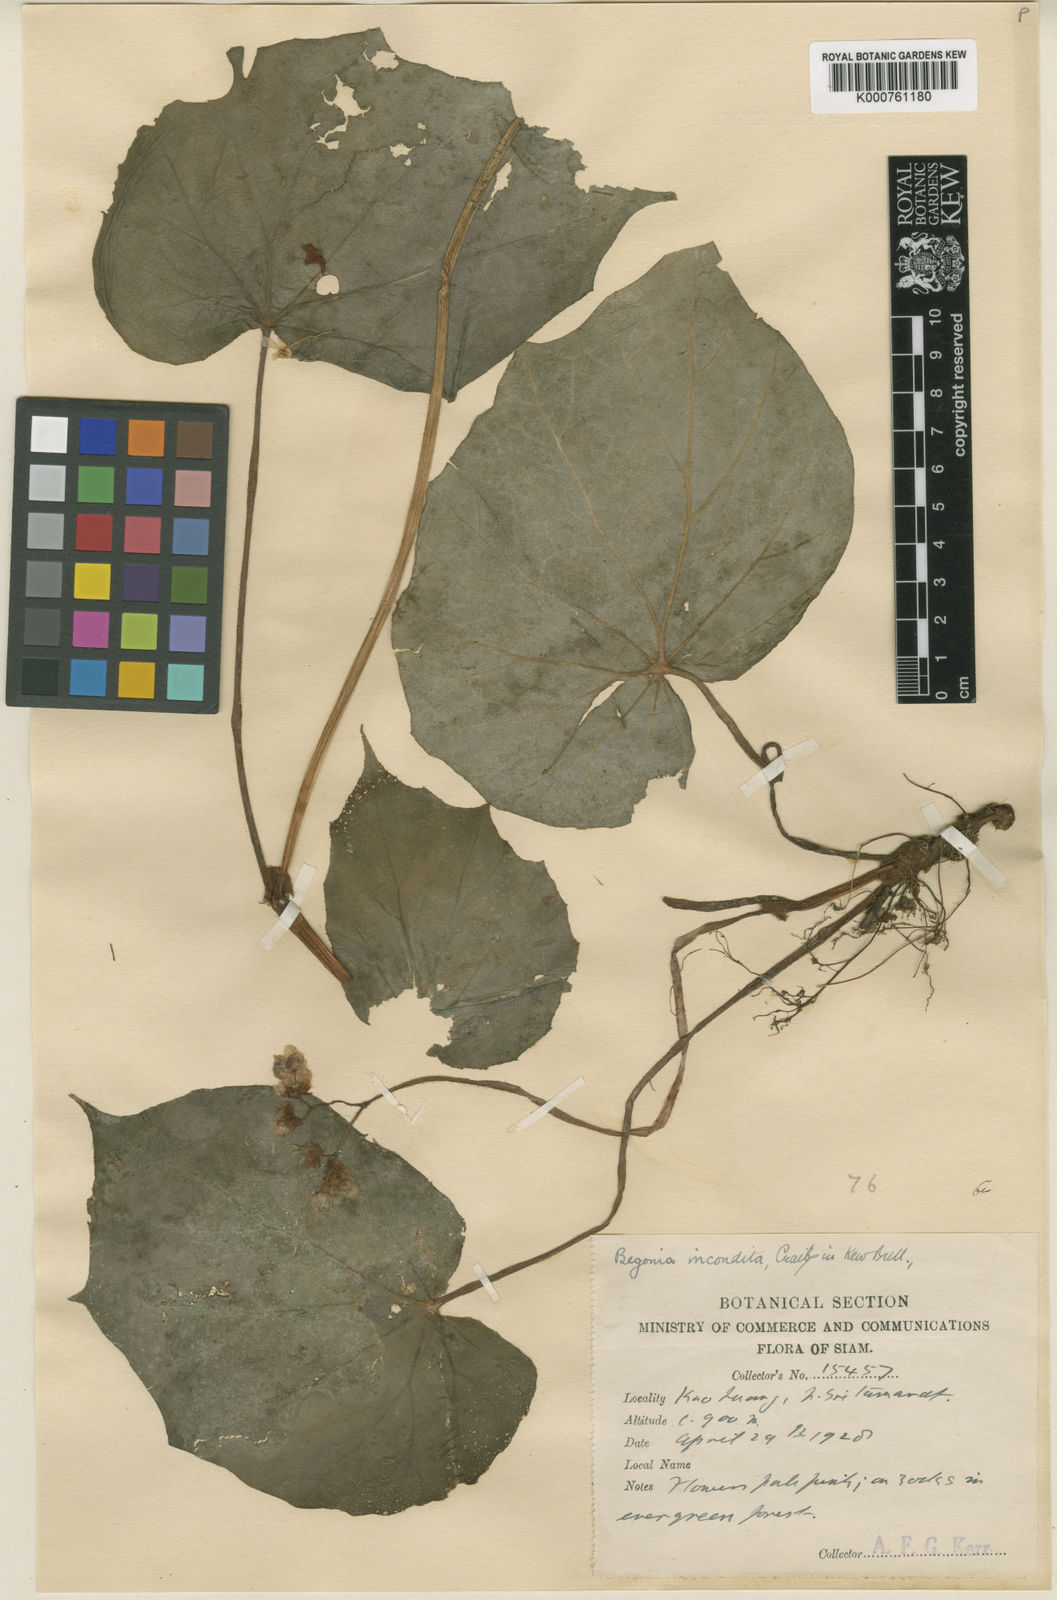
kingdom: Plantae
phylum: Tracheophyta
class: Magnoliopsida
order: Cucurbitales
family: Begoniaceae
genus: Begonia
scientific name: Begonia incondita
